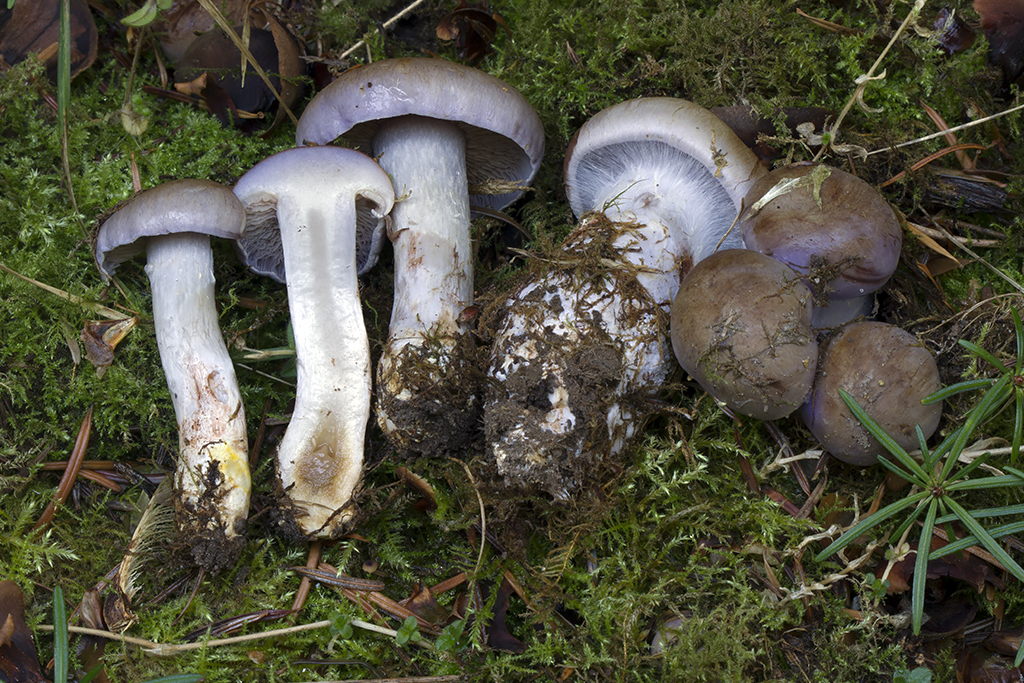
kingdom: Fungi
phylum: Basidiomycota
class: Agaricomycetes
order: Agaricales
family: Cortinariaceae
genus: Phlegmacium
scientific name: Phlegmacium eliae
